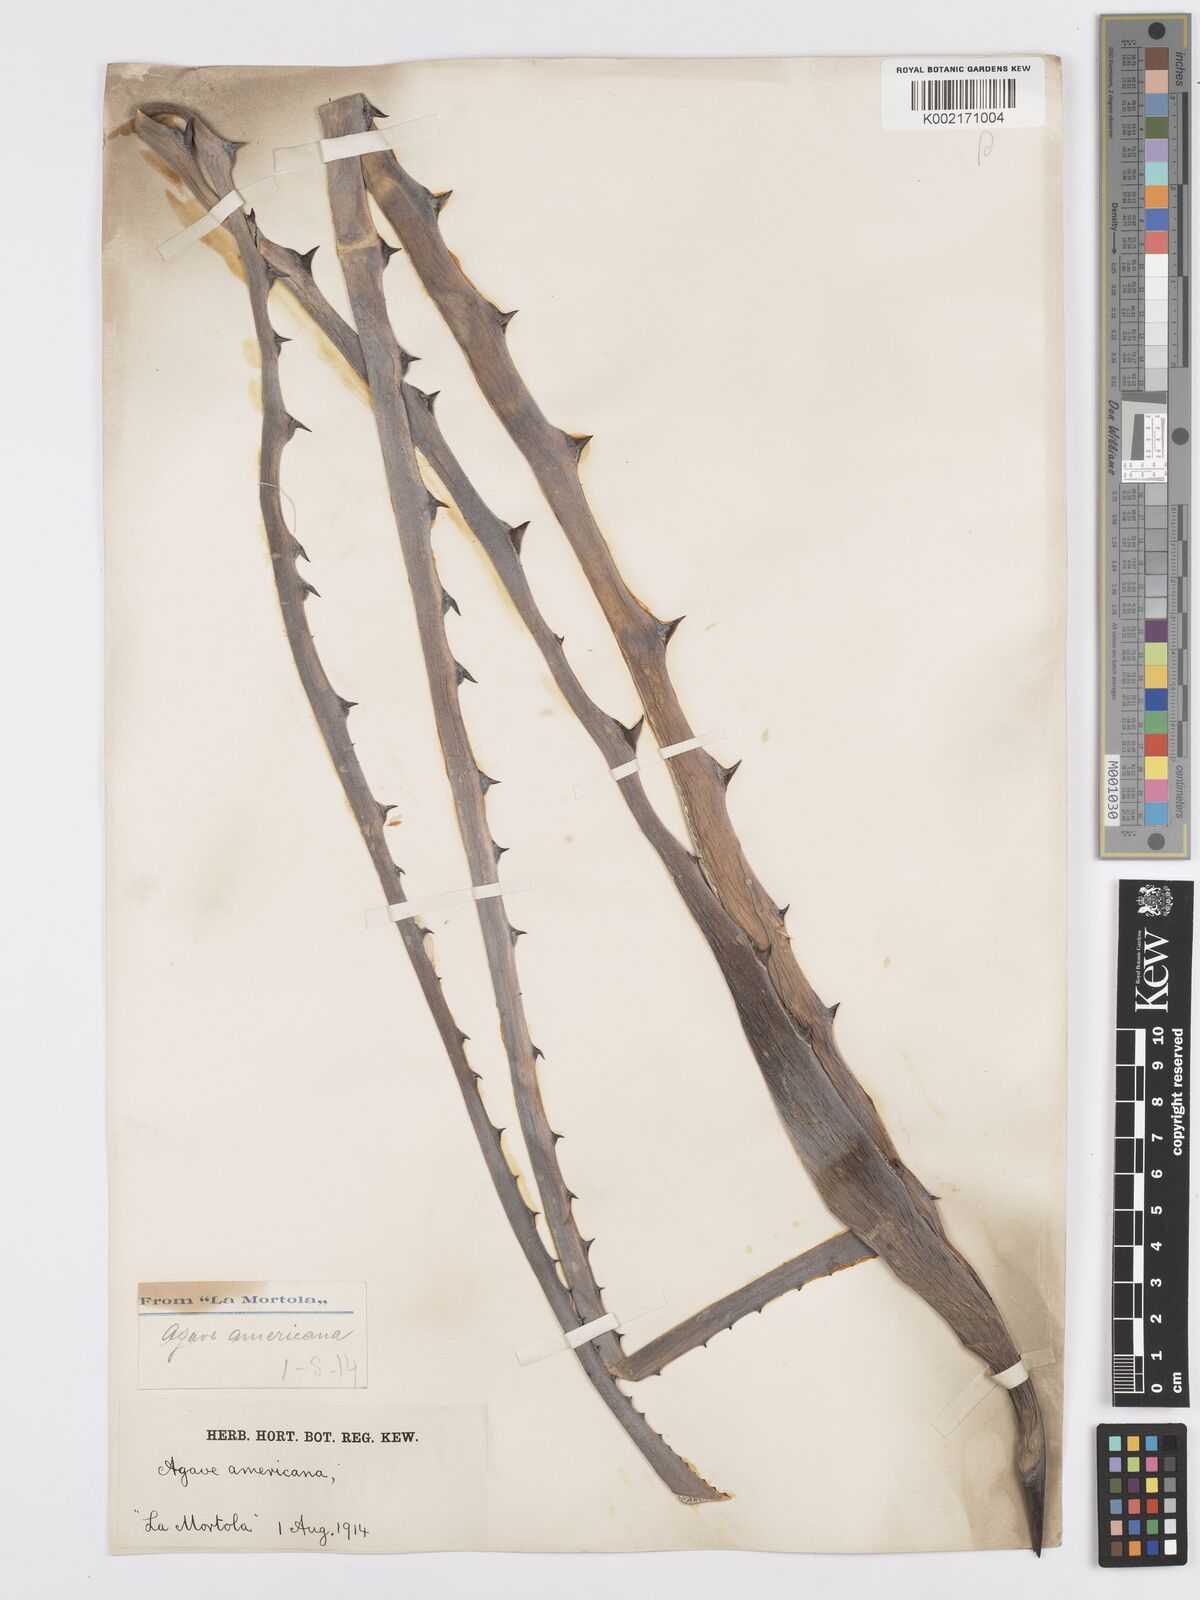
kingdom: Plantae
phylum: Tracheophyta
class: Liliopsida
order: Asparagales
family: Asparagaceae
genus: Agave
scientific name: Agave americana
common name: Centuryplant
